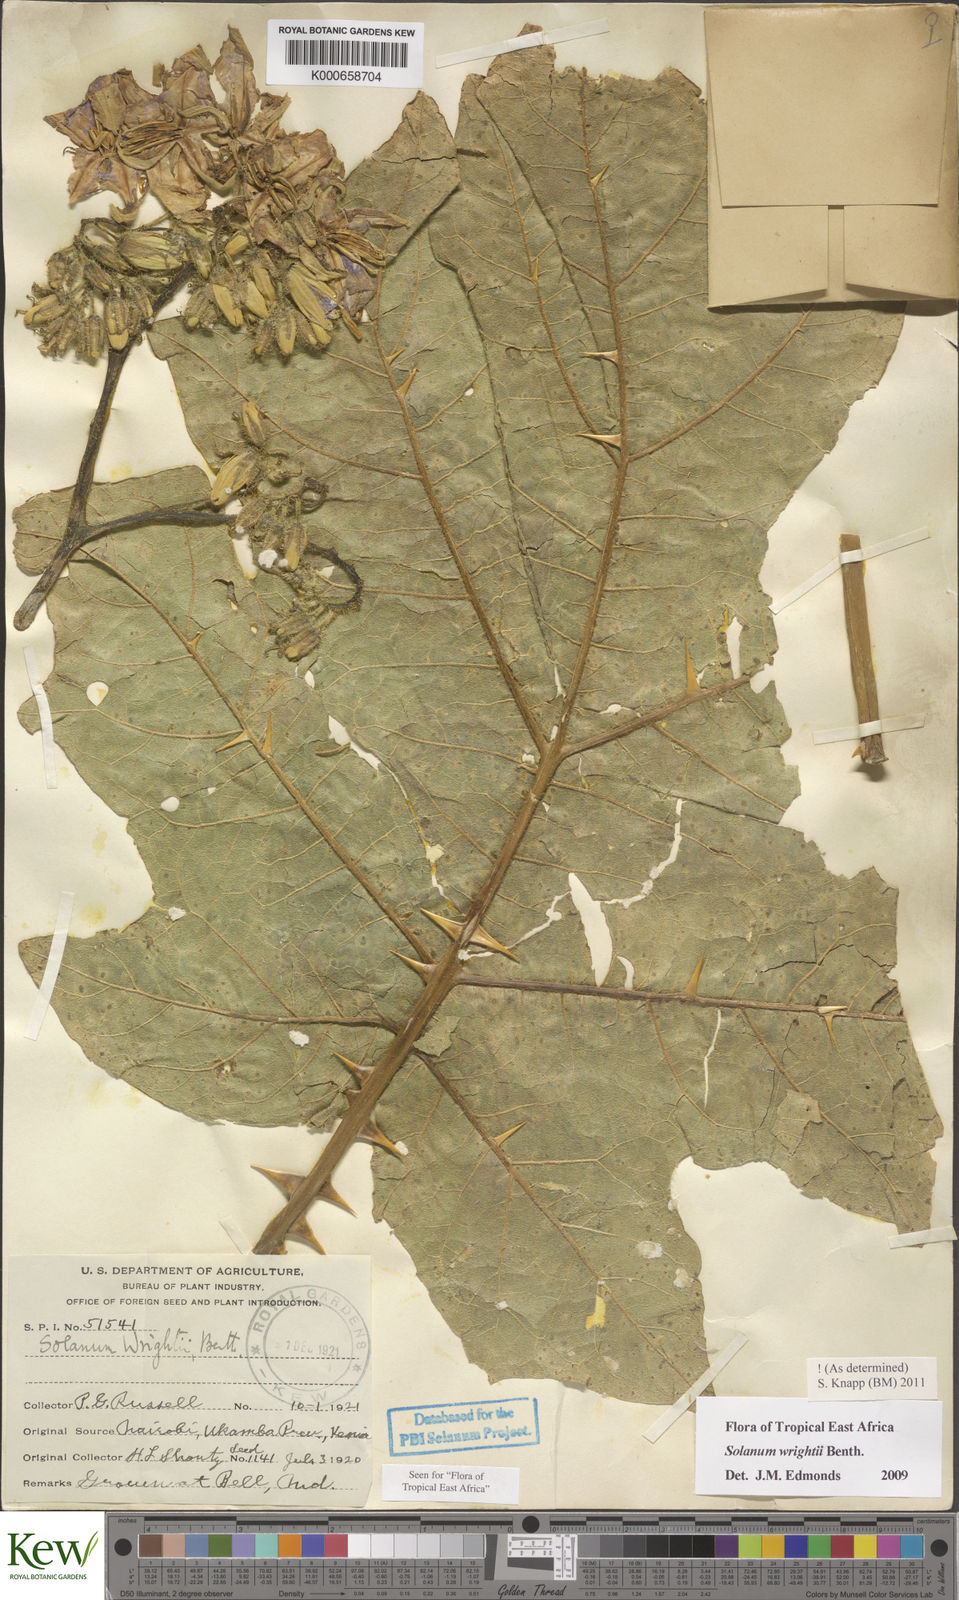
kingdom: Plantae
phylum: Tracheophyta
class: Magnoliopsida
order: Solanales
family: Solanaceae
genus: Solanum
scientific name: Solanum wrightii
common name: Brazilian potato-tree
